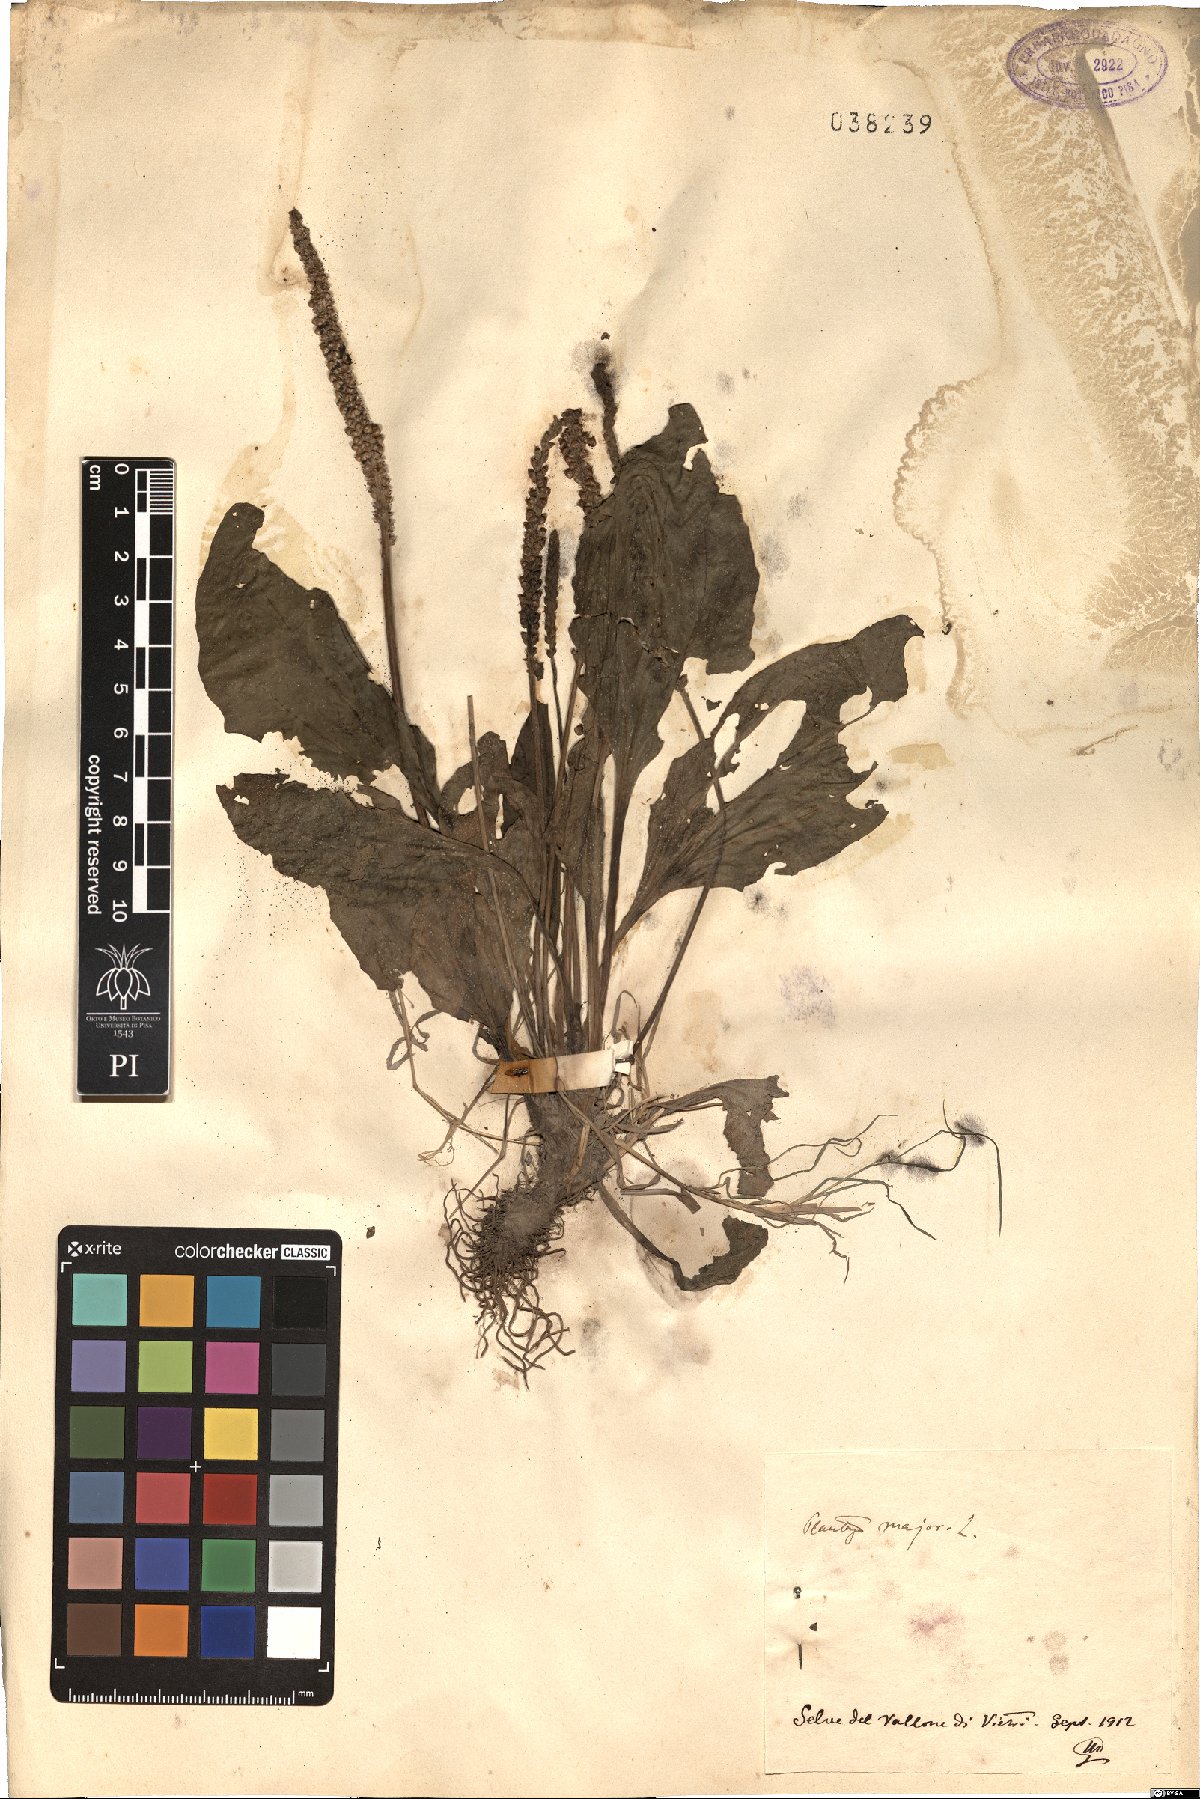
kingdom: Plantae
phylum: Tracheophyta
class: Magnoliopsida
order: Lamiales
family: Plantaginaceae
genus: Plantago
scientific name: Plantago major
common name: Common plantain
